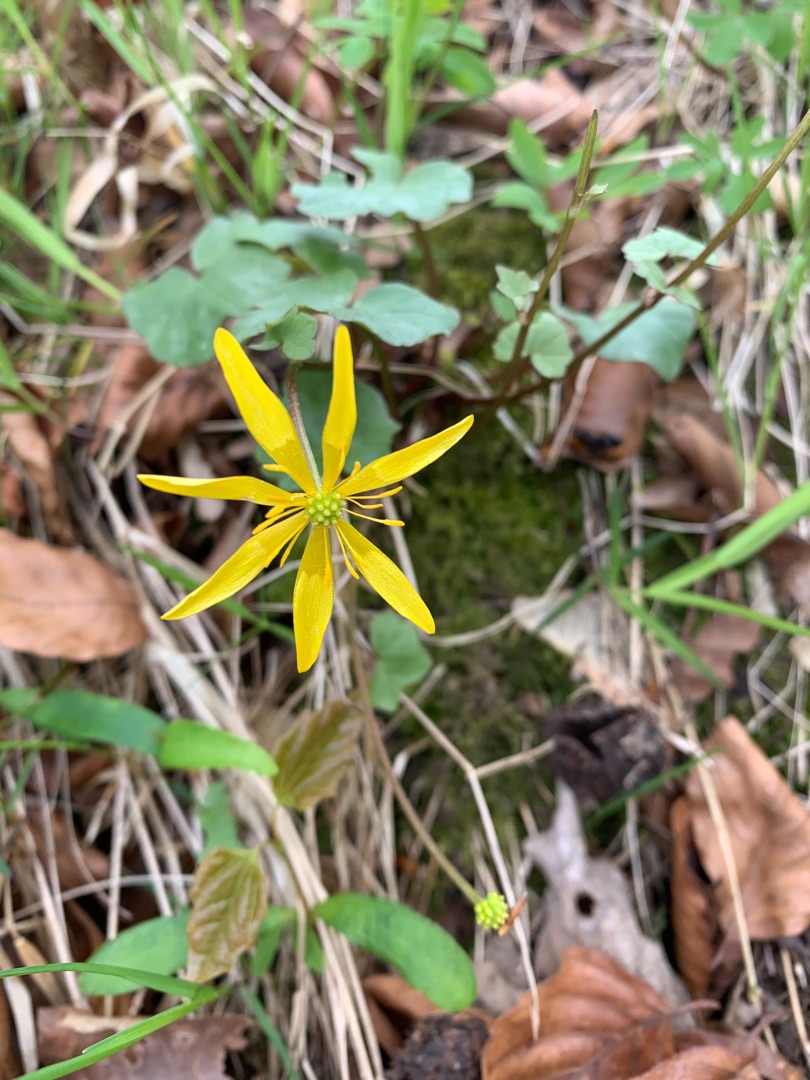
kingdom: Plantae
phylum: Tracheophyta
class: Magnoliopsida
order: Ranunculales
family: Ranunculaceae
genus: Ficaria
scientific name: Ficaria verna
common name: Vorterod
